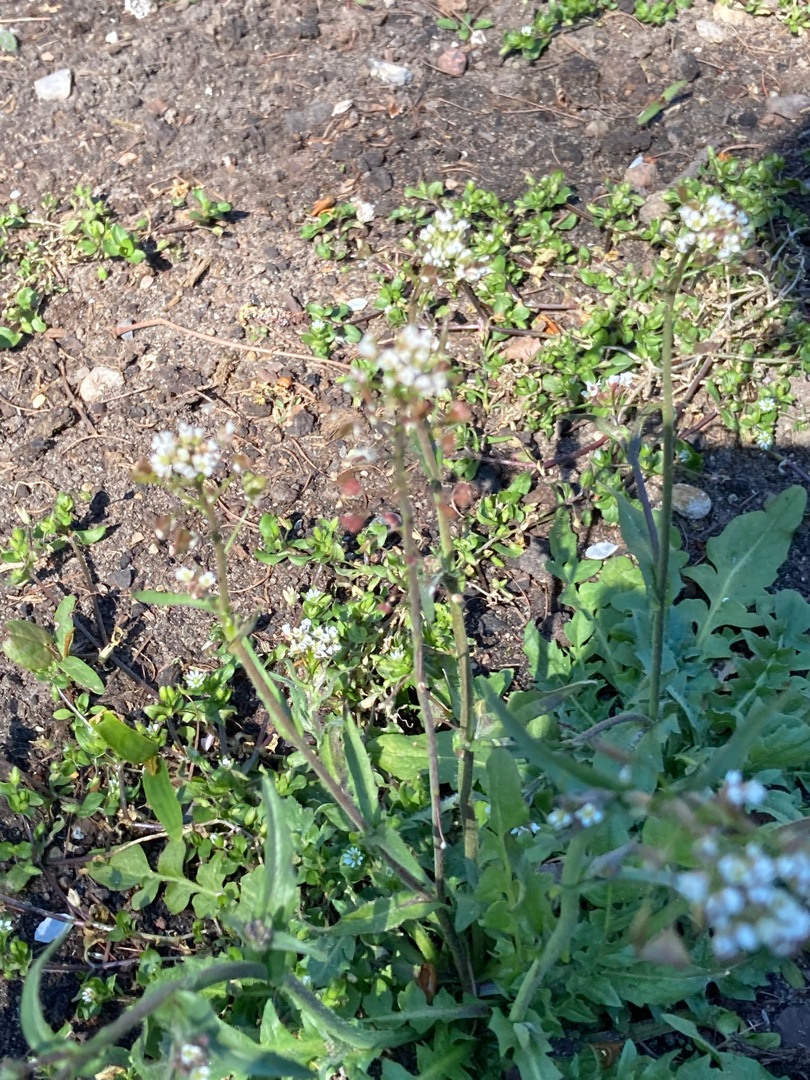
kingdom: Plantae
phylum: Tracheophyta
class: Magnoliopsida
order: Brassicales
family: Brassicaceae
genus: Capsella
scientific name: Capsella bursa-pastoris
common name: Hyrdetaske
